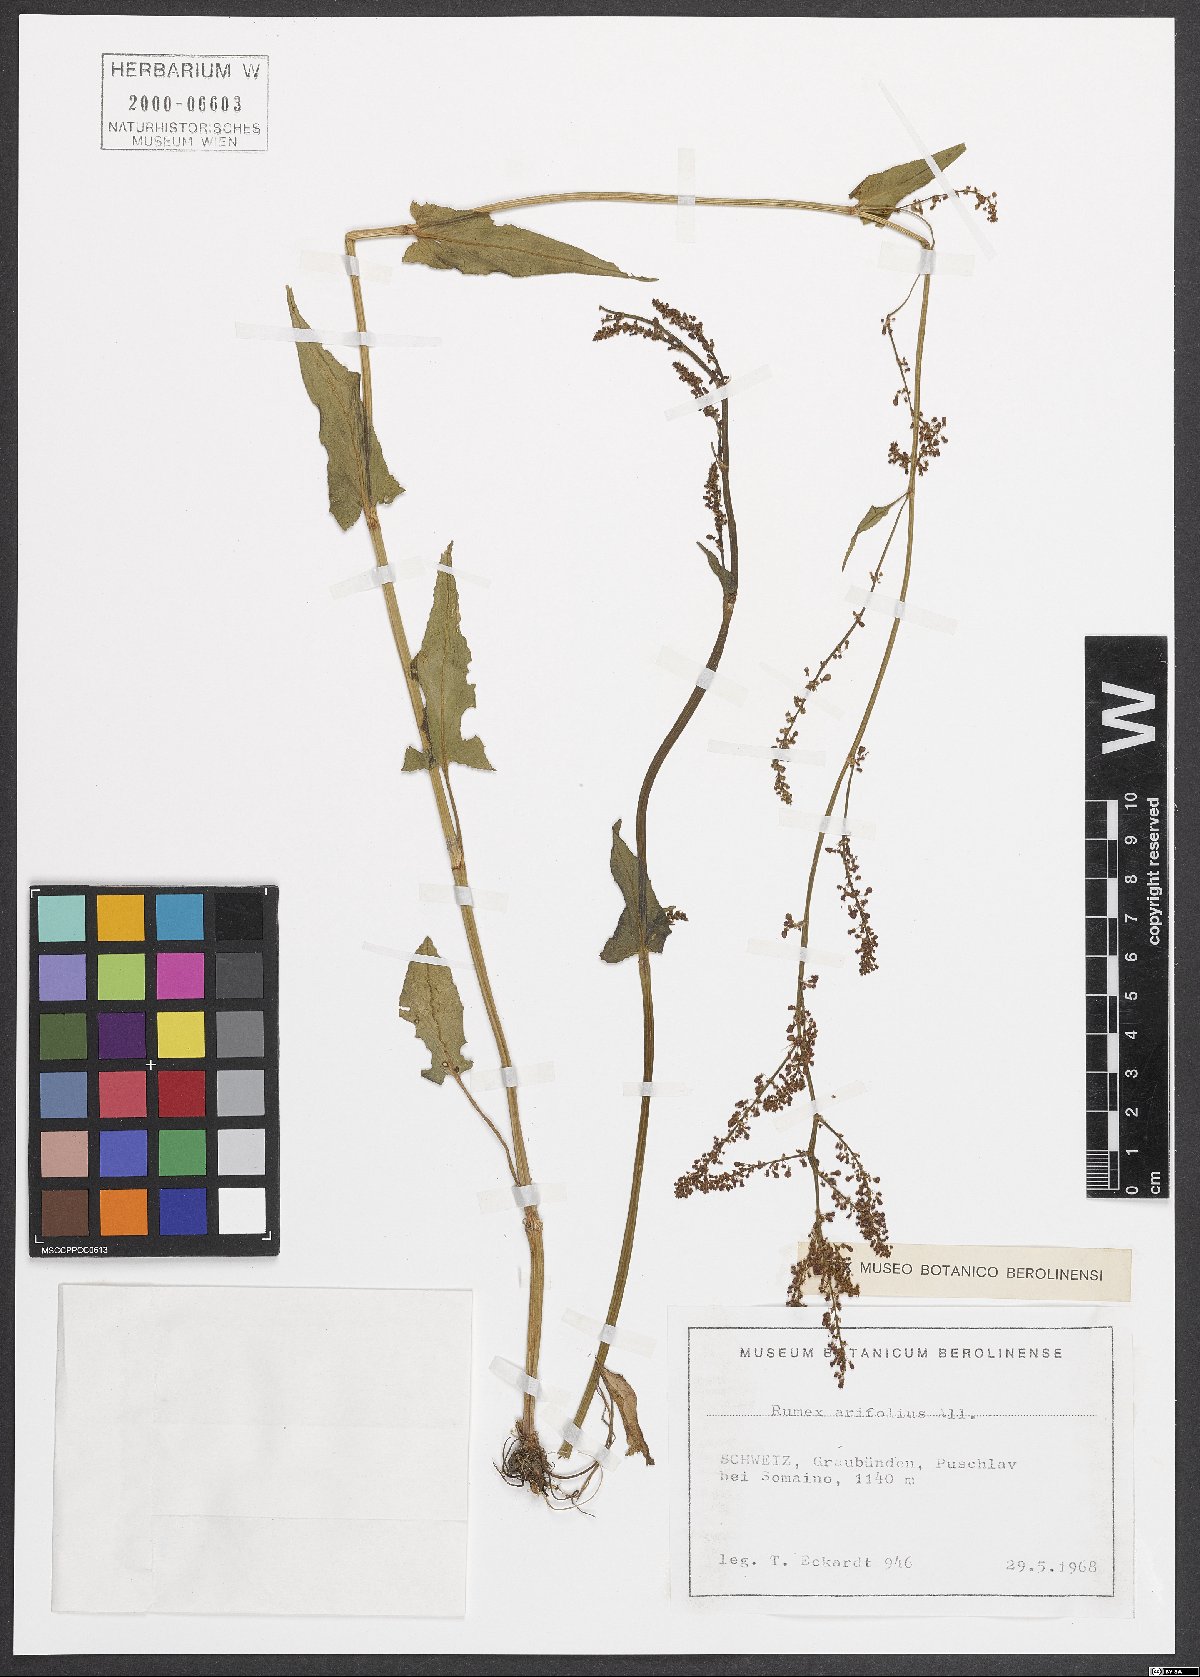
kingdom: Plantae
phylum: Tracheophyta
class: Magnoliopsida
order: Caryophyllales
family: Polygonaceae
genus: Rumex
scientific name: Rumex arifolius
